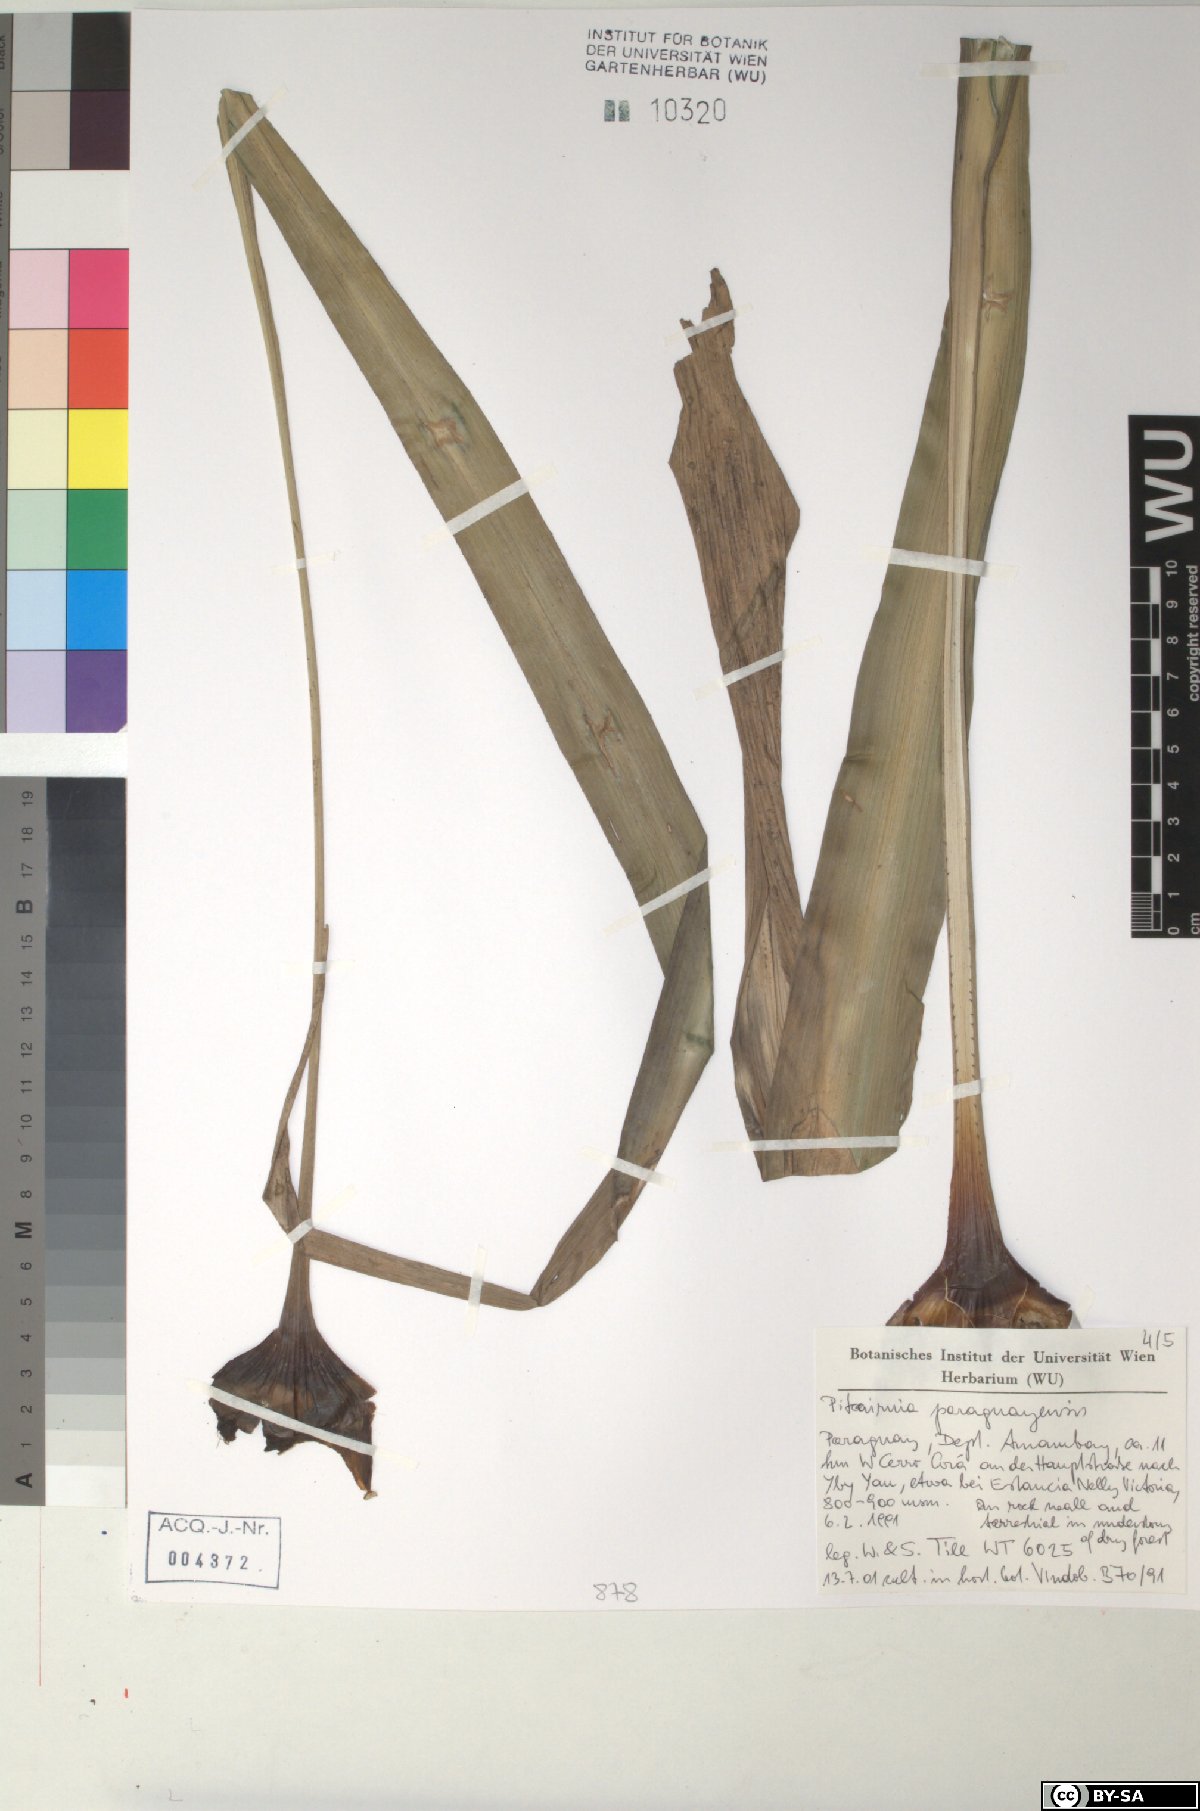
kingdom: Plantae
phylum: Tracheophyta
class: Liliopsida
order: Poales
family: Bromeliaceae
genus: Pitcairnia
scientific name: Pitcairnia paraguayensis
